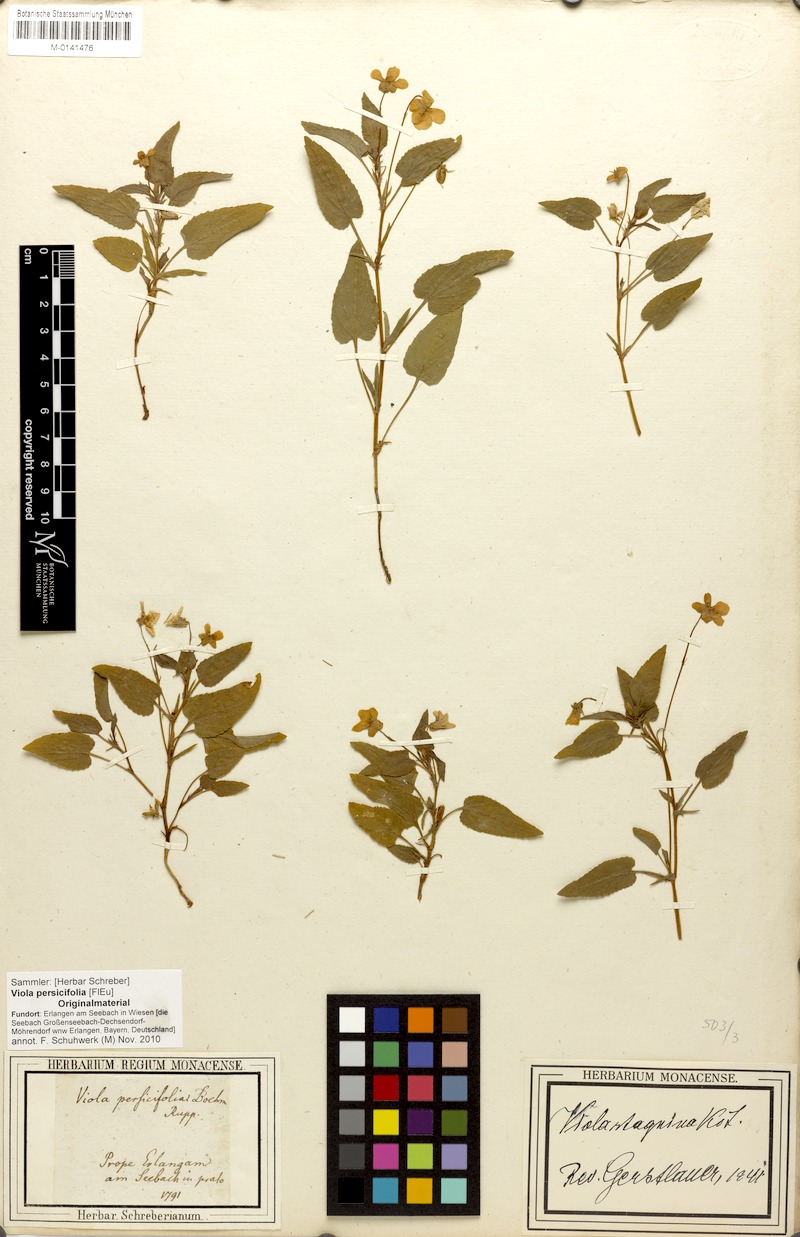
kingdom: Plantae
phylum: Tracheophyta
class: Magnoliopsida
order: Malpighiales
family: Violaceae
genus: Viola
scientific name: Viola stagnina
